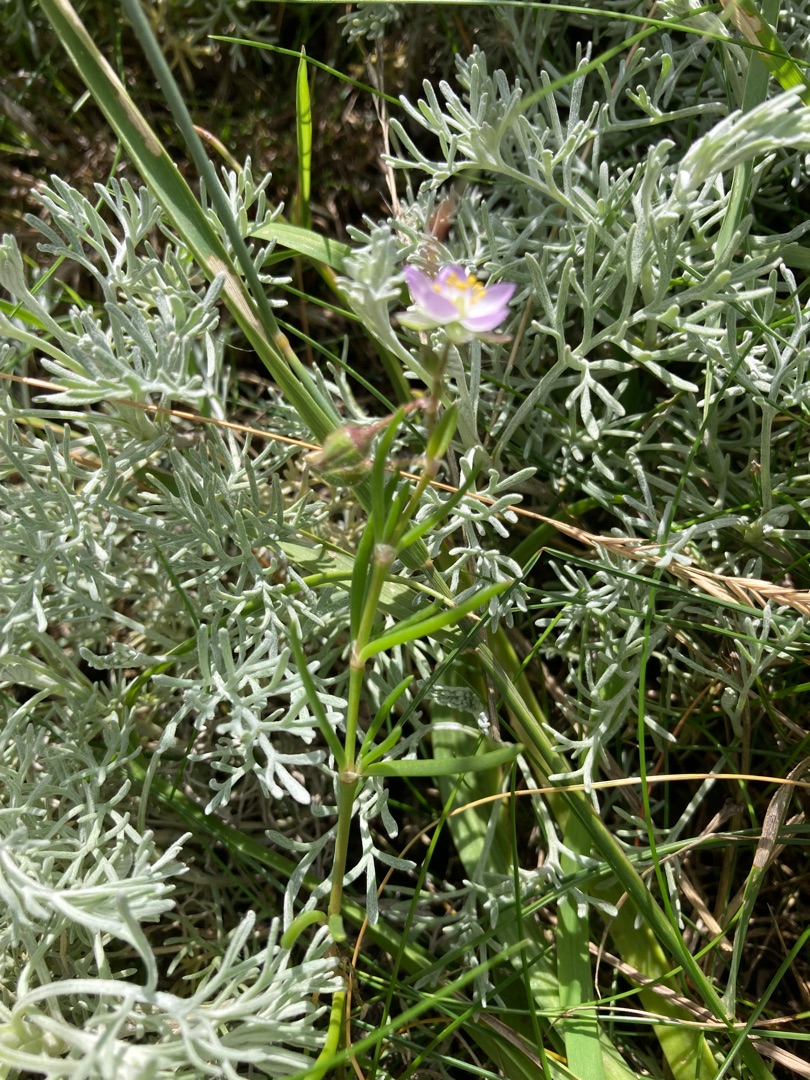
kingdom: Plantae
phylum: Tracheophyta
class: Magnoliopsida
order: Caryophyllales
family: Caryophyllaceae
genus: Spergularia
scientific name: Spergularia media
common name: Vingefrøet hindeknæ
